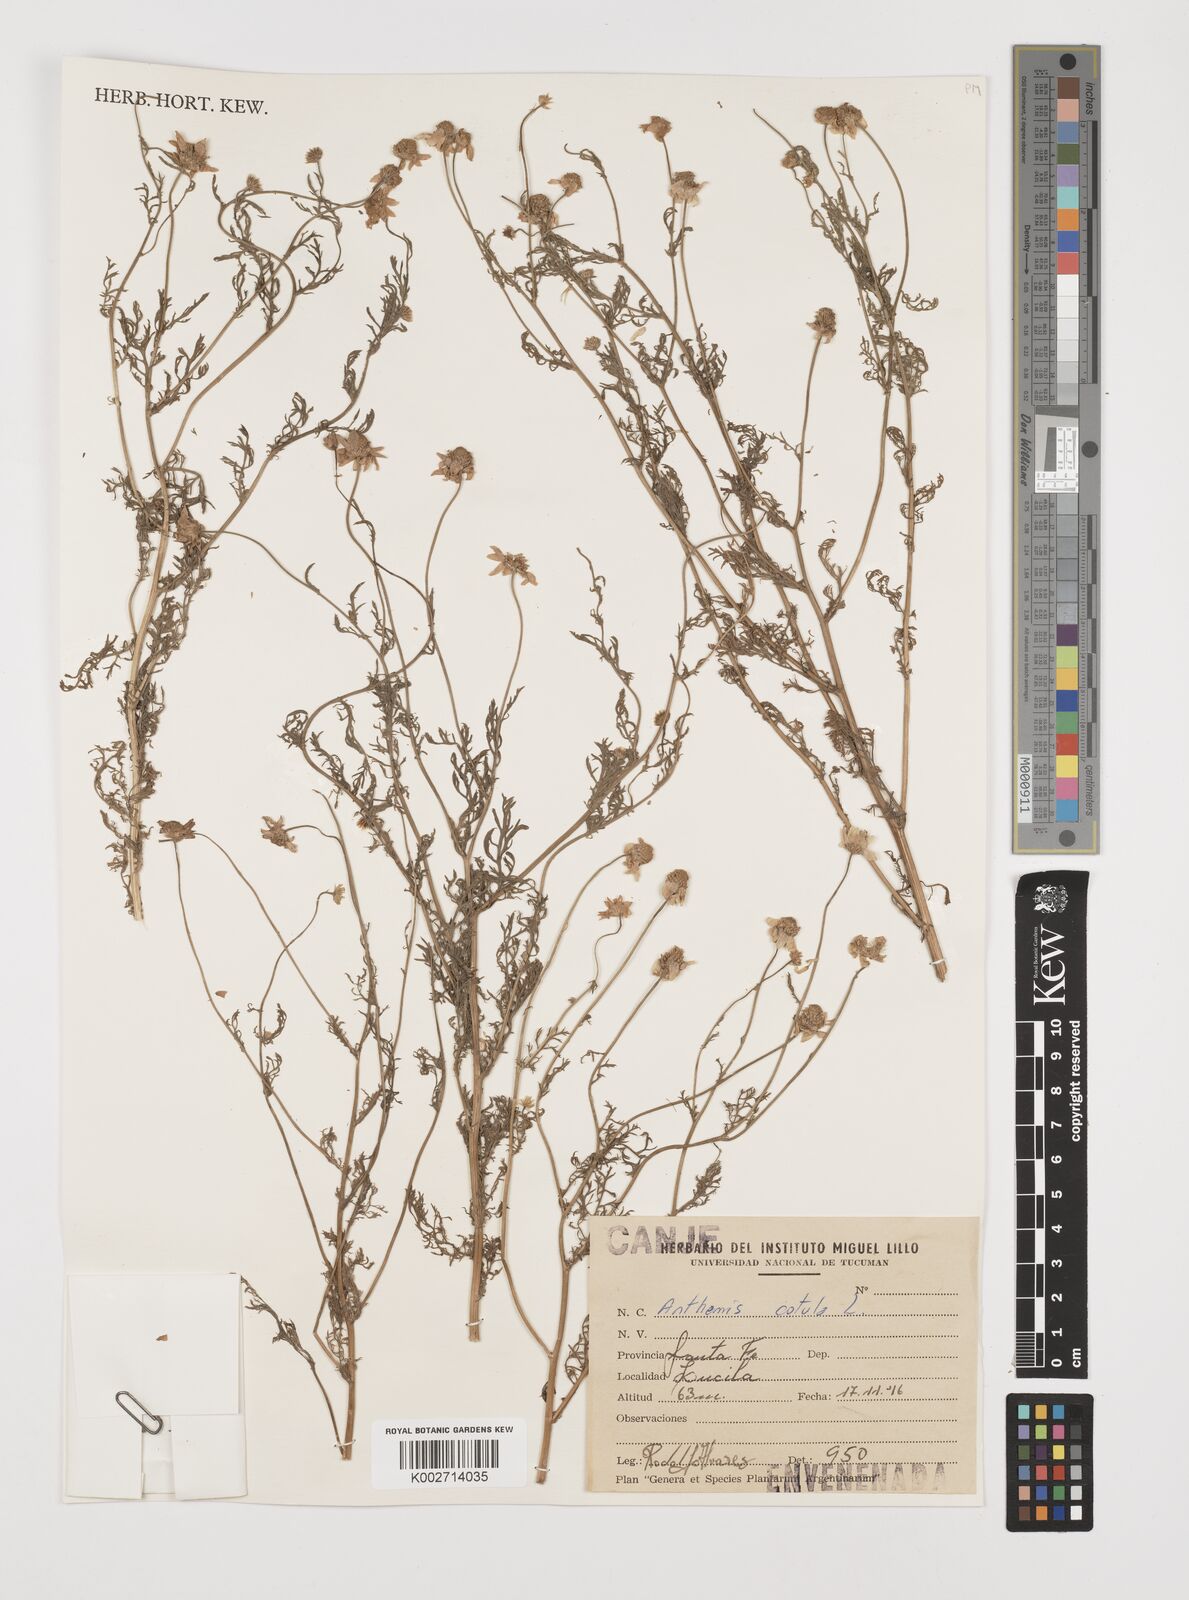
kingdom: Plantae
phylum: Tracheophyta
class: Magnoliopsida
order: Asterales
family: Asteraceae
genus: Anthemis
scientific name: Anthemis cotula
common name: Stinking chamomile
